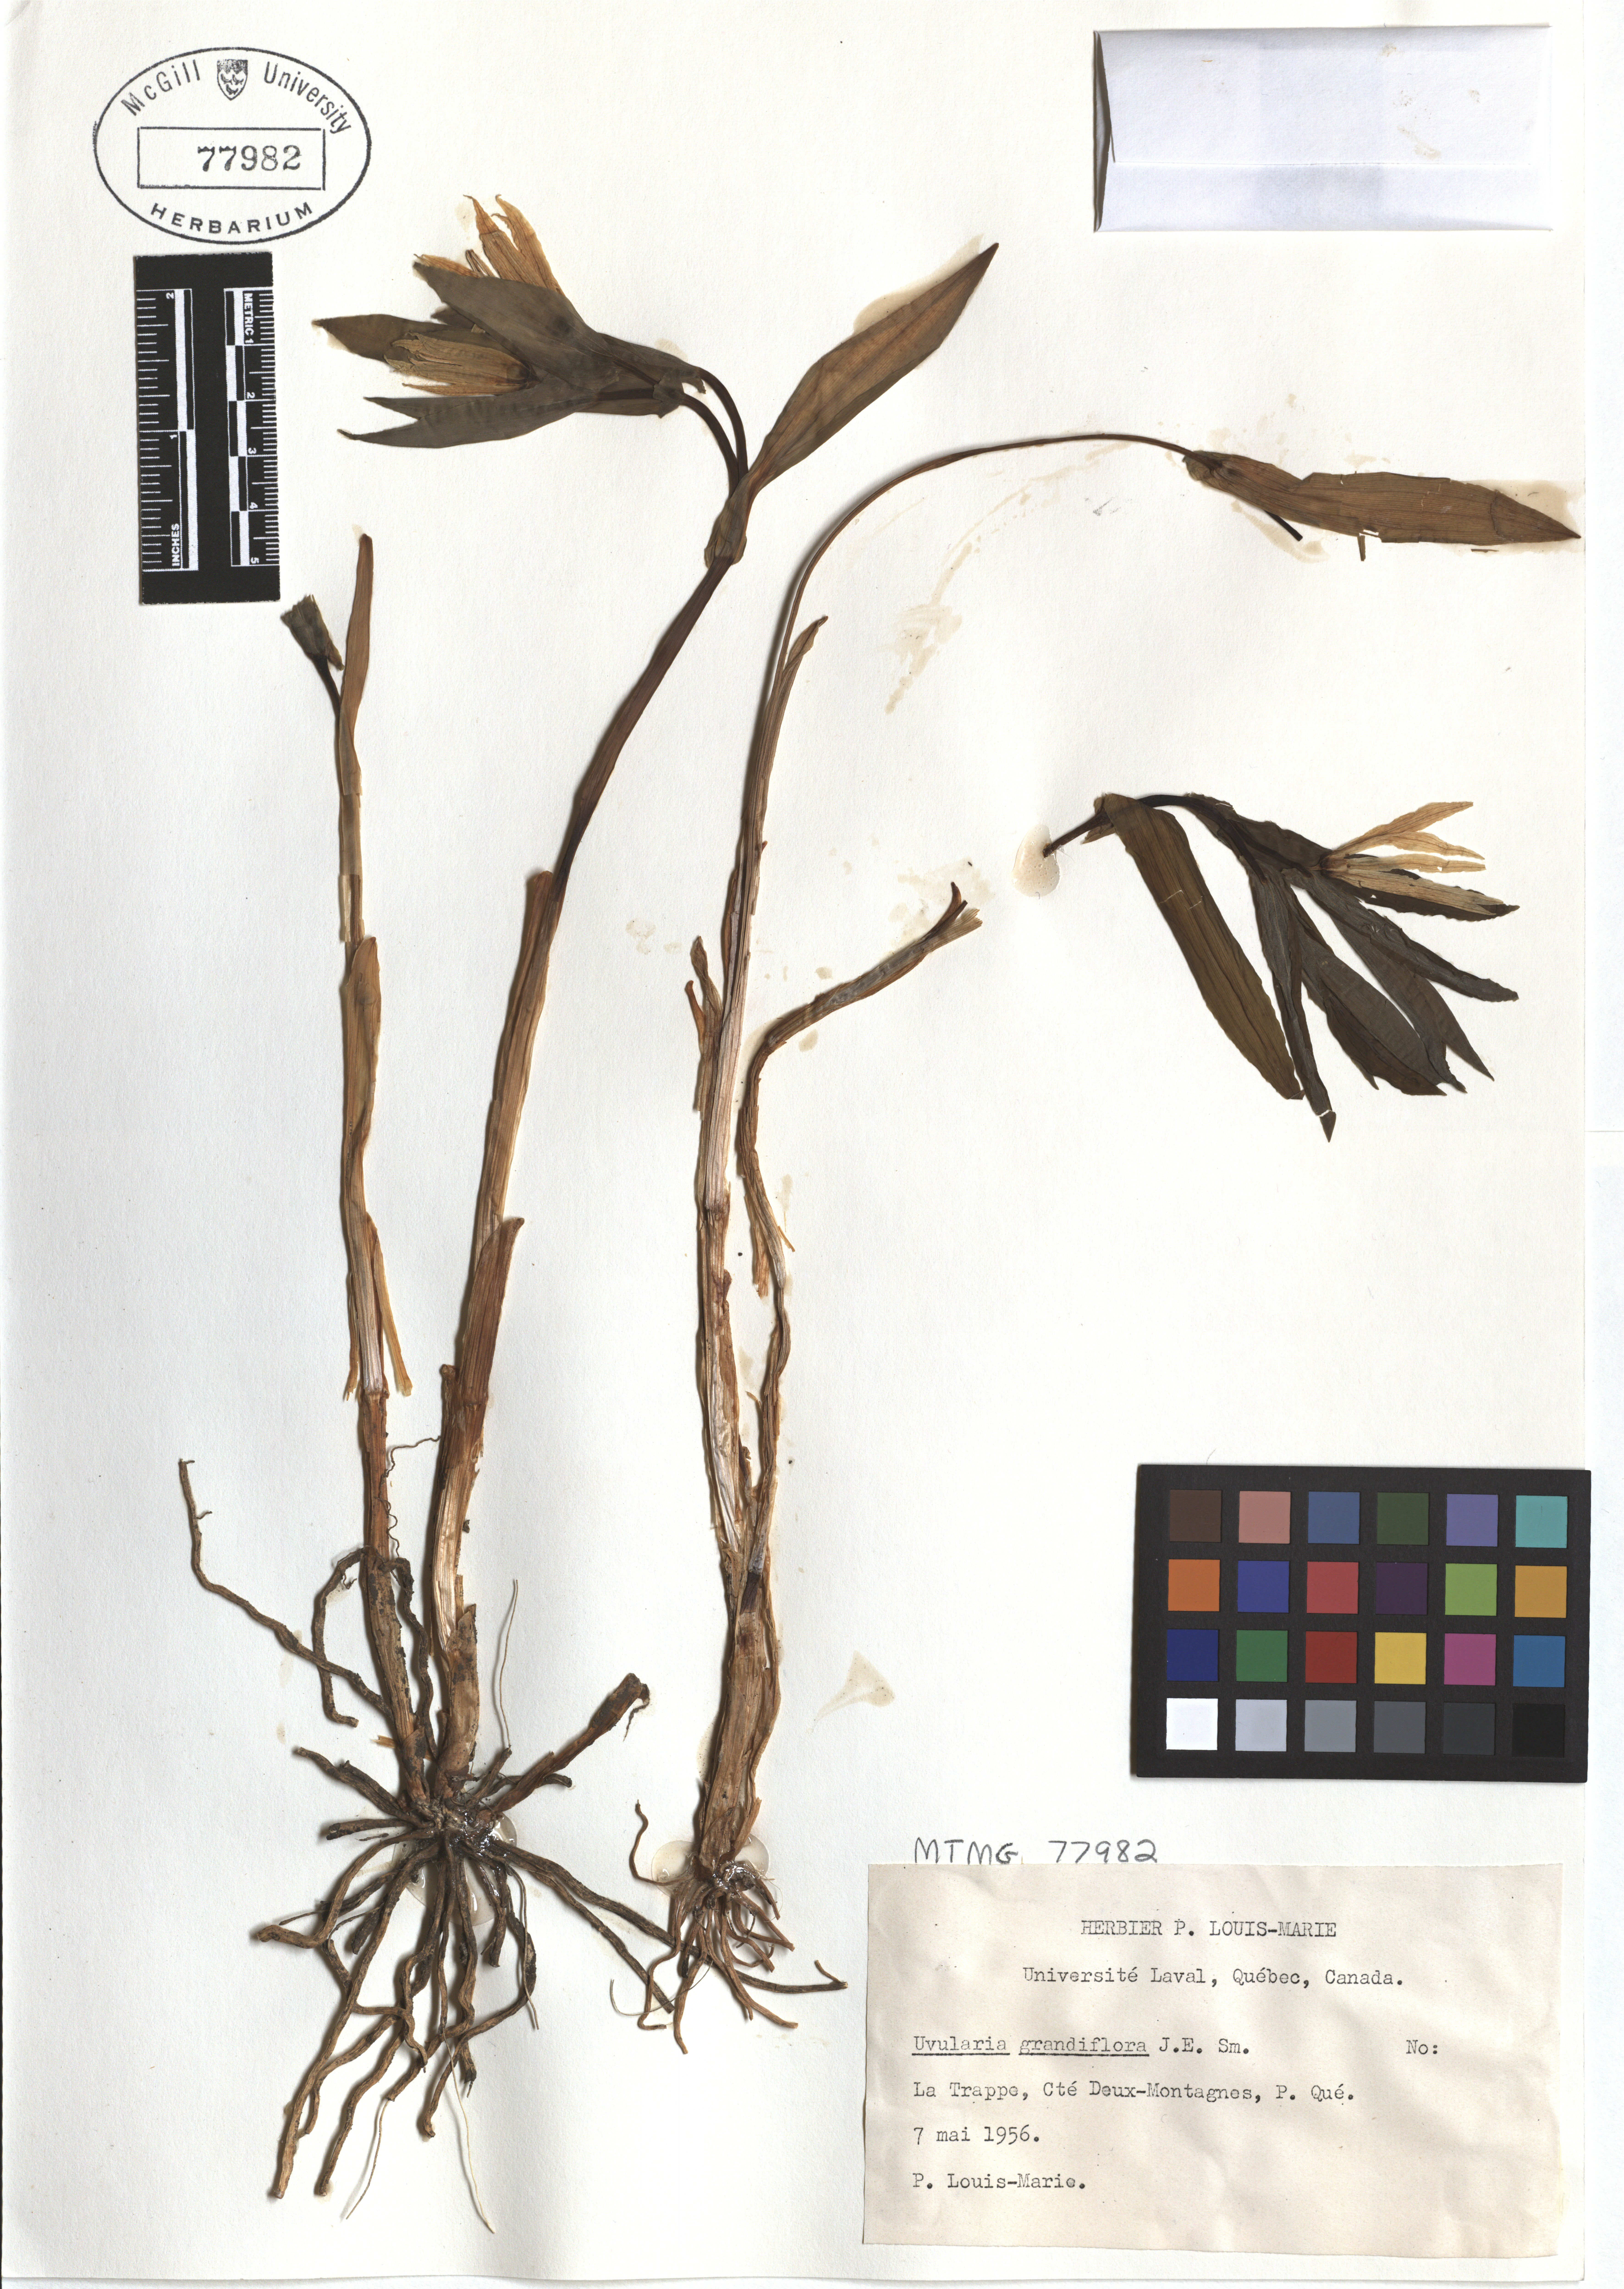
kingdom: Plantae
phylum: Tracheophyta
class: Liliopsida
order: Liliales
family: Colchicaceae
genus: Uvularia
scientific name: Uvularia grandiflora
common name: Bellwort
